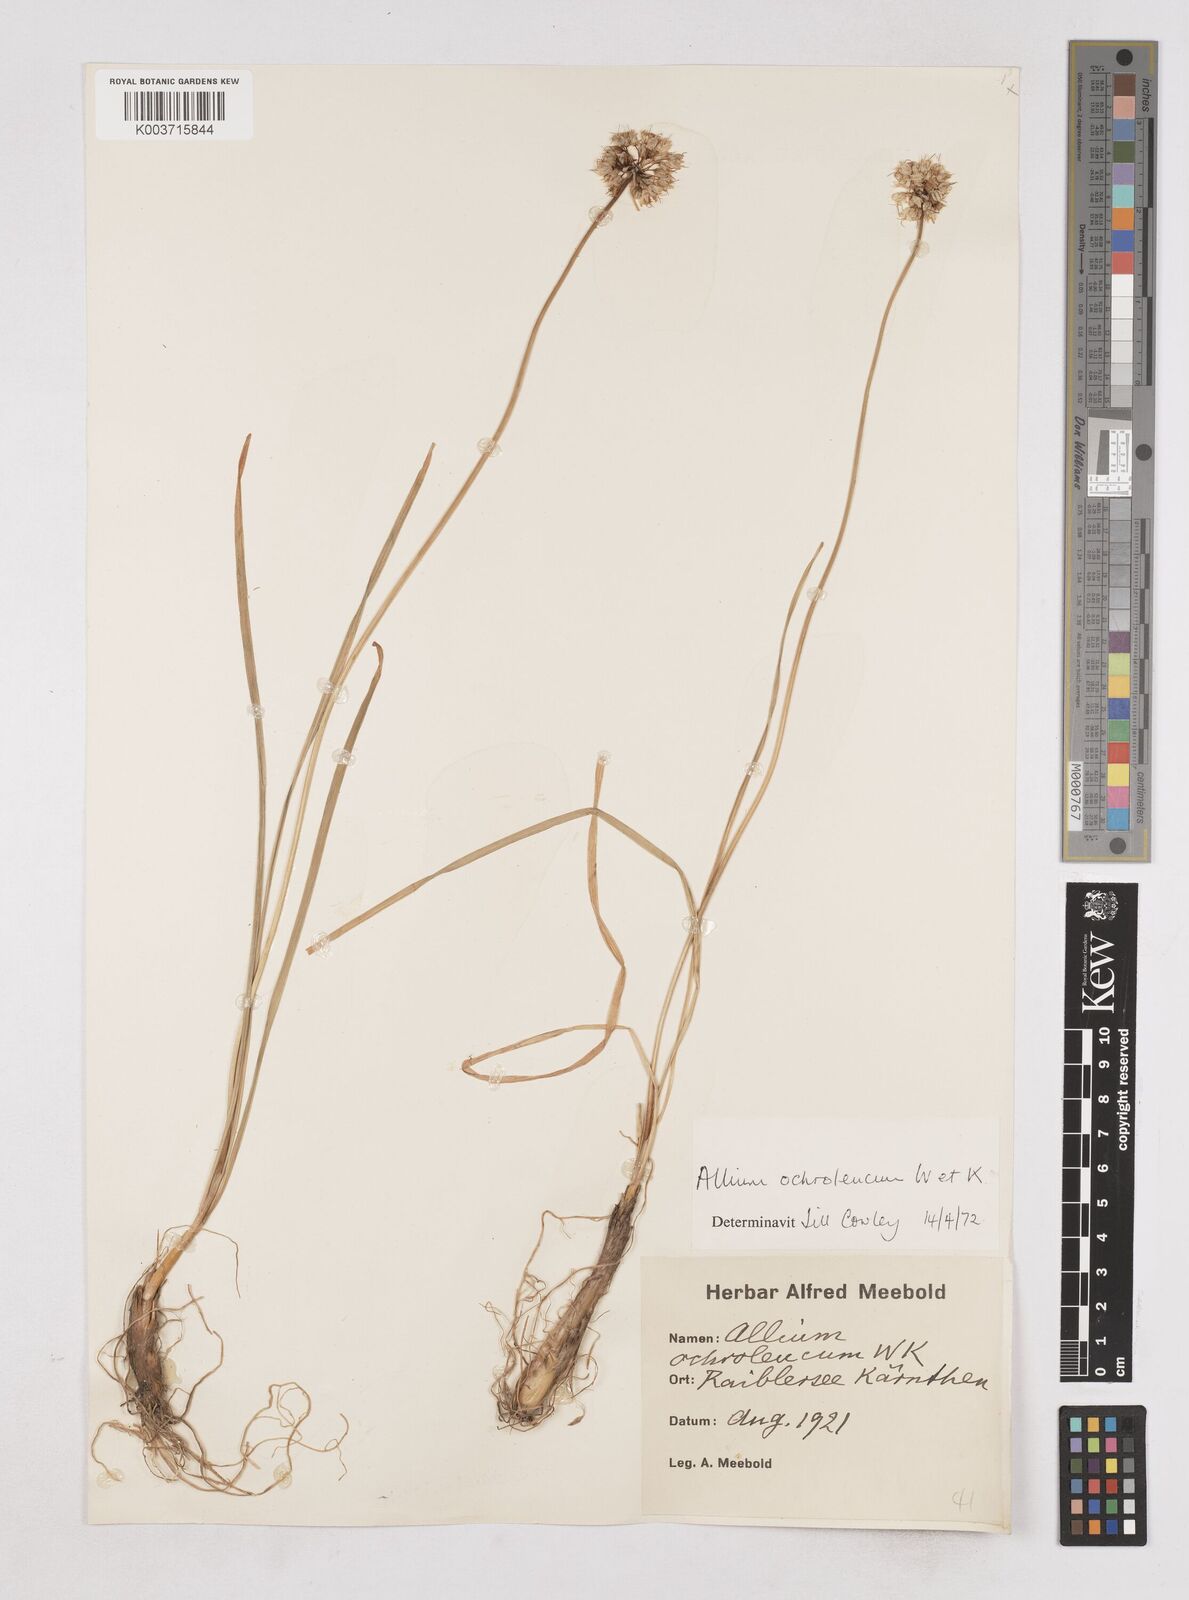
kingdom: Plantae
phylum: Tracheophyta
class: Liliopsida
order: Asparagales
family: Amaryllidaceae
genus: Allium
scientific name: Allium ericetorum
